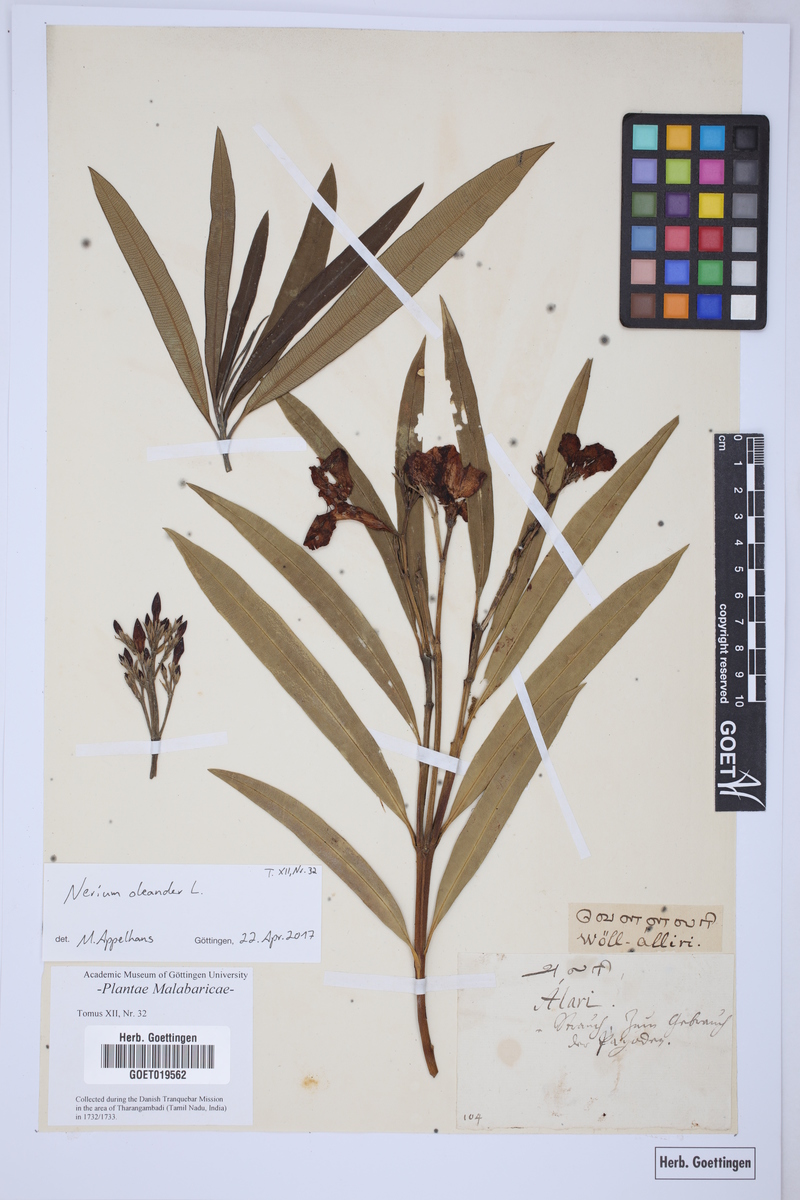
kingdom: Plantae
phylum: Tracheophyta
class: Magnoliopsida
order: Gentianales
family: Apocynaceae
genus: Nerium
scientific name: Nerium oleander
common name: Oleander
